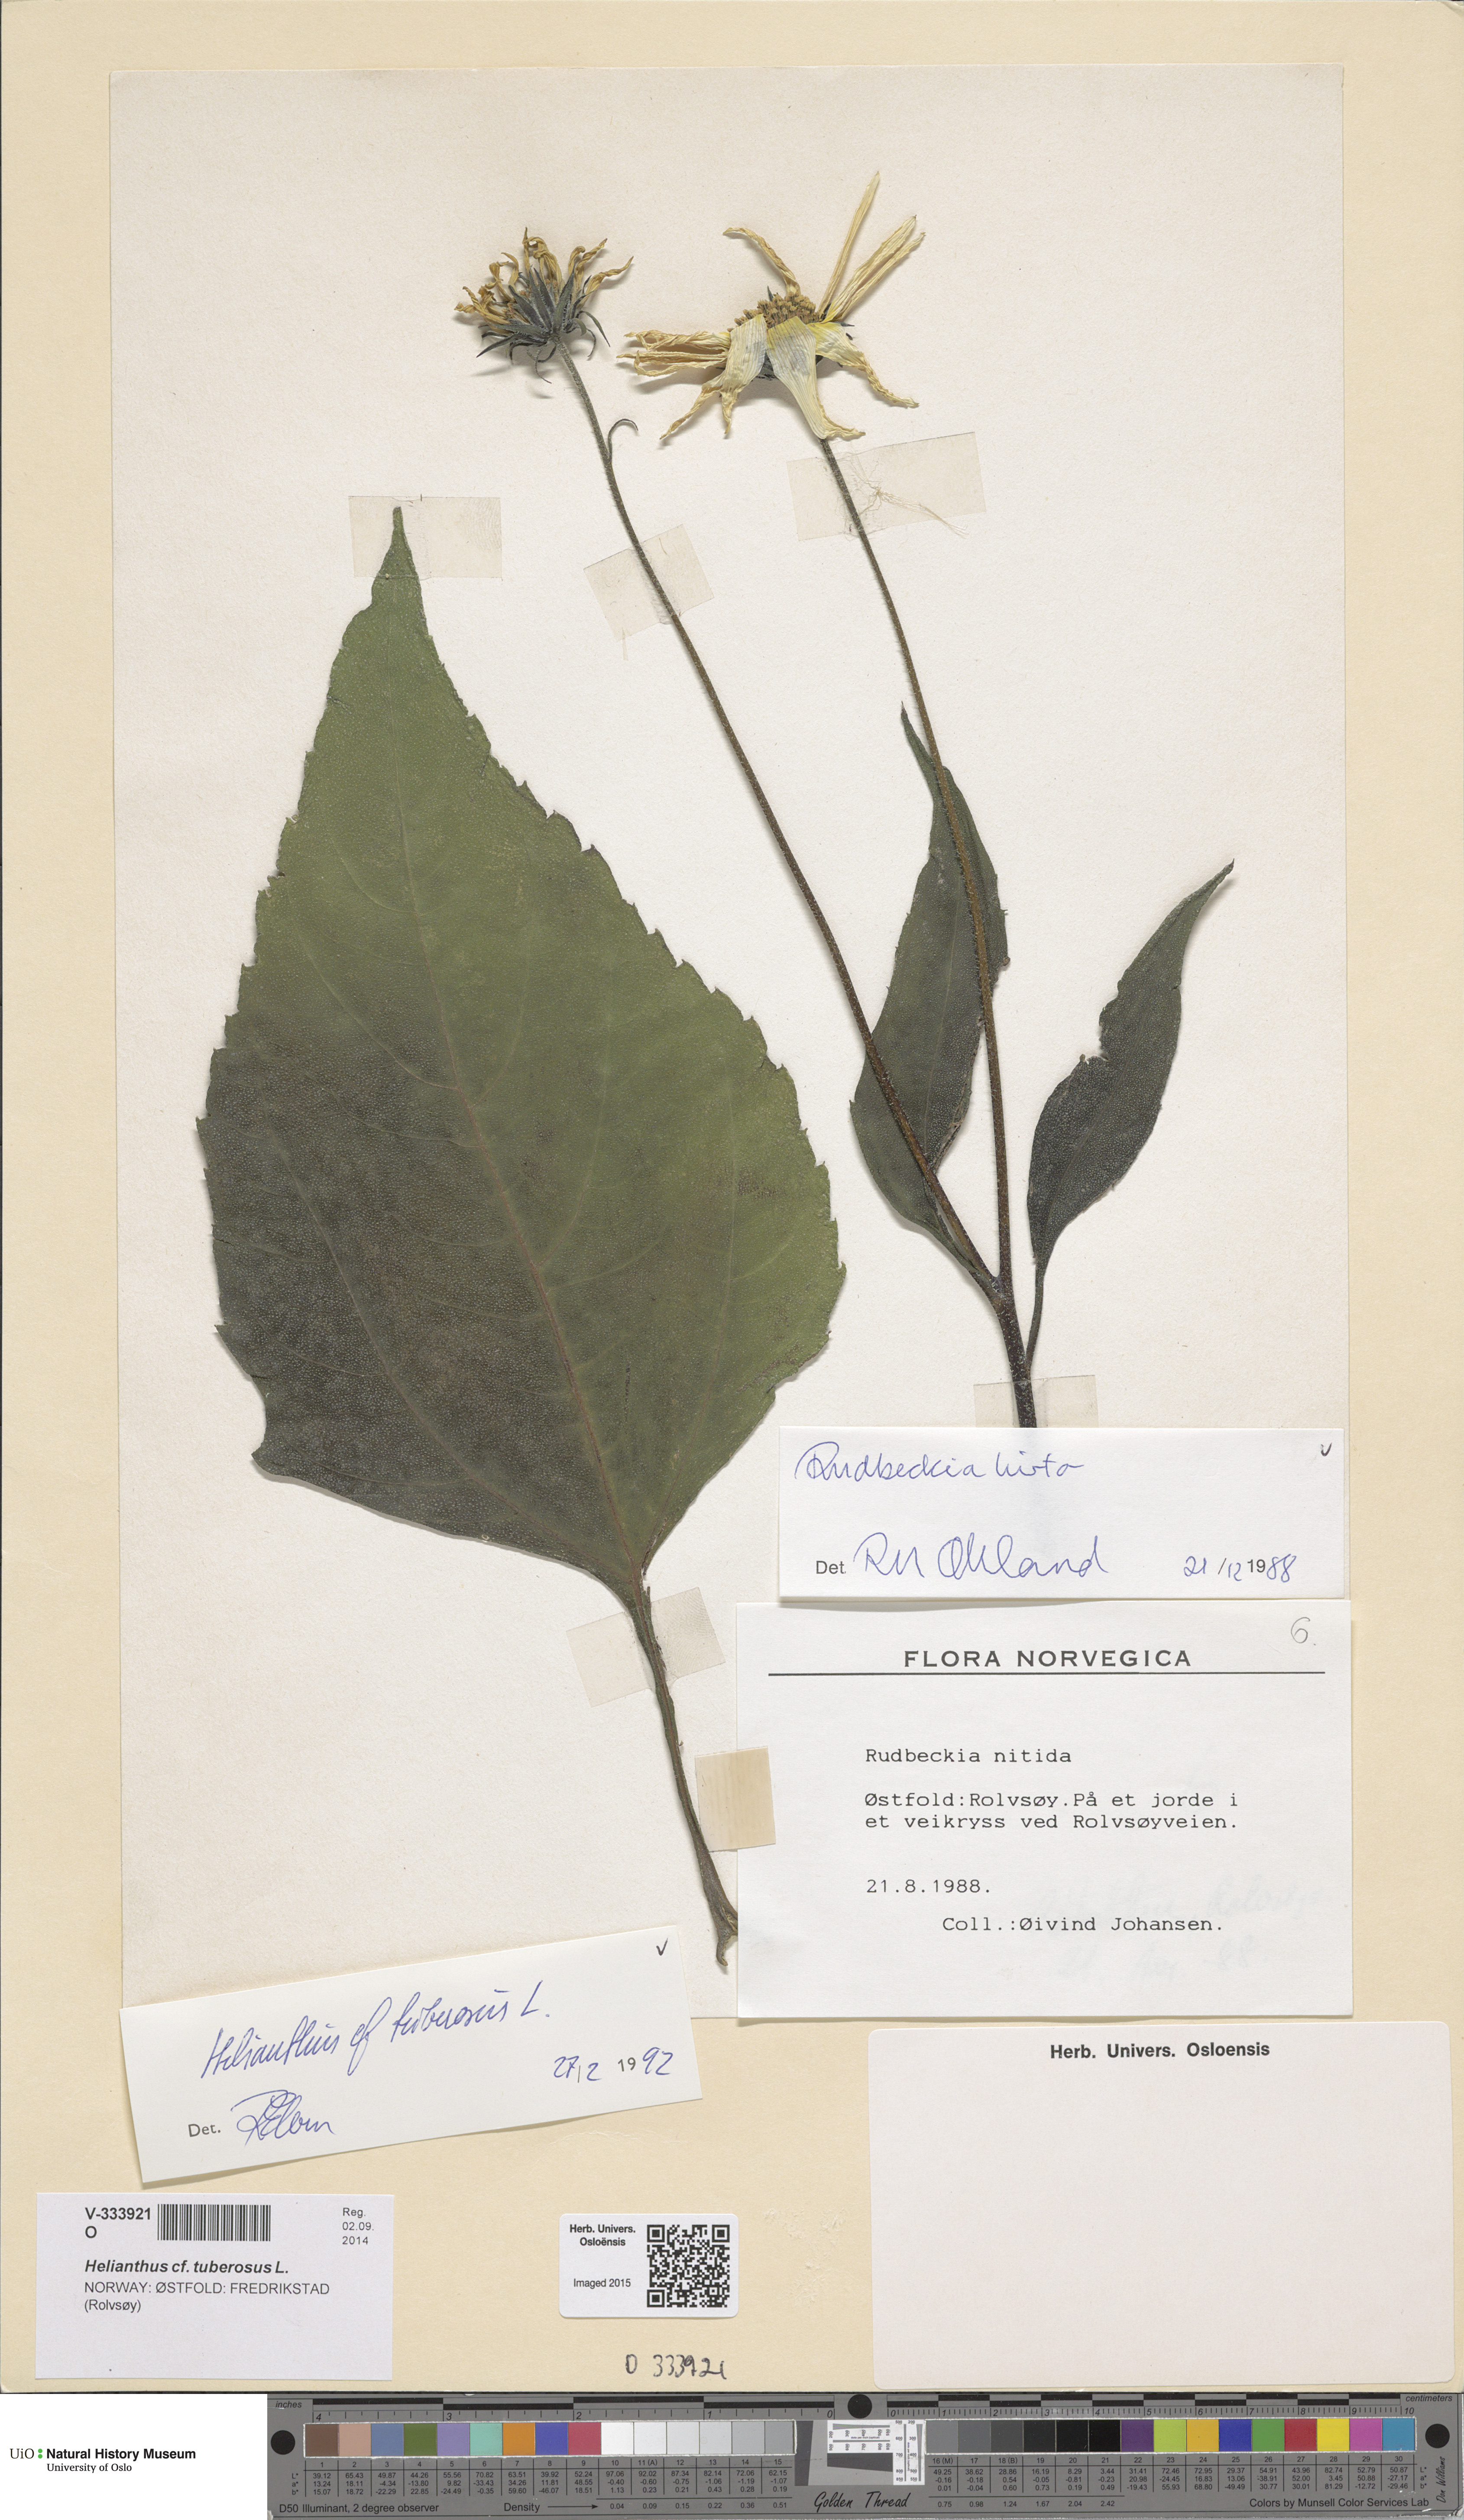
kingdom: Plantae
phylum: Tracheophyta
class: Magnoliopsida
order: Asterales
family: Asteraceae
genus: Helianthus
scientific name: Helianthus laetiflorus
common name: Perennial sunflower
